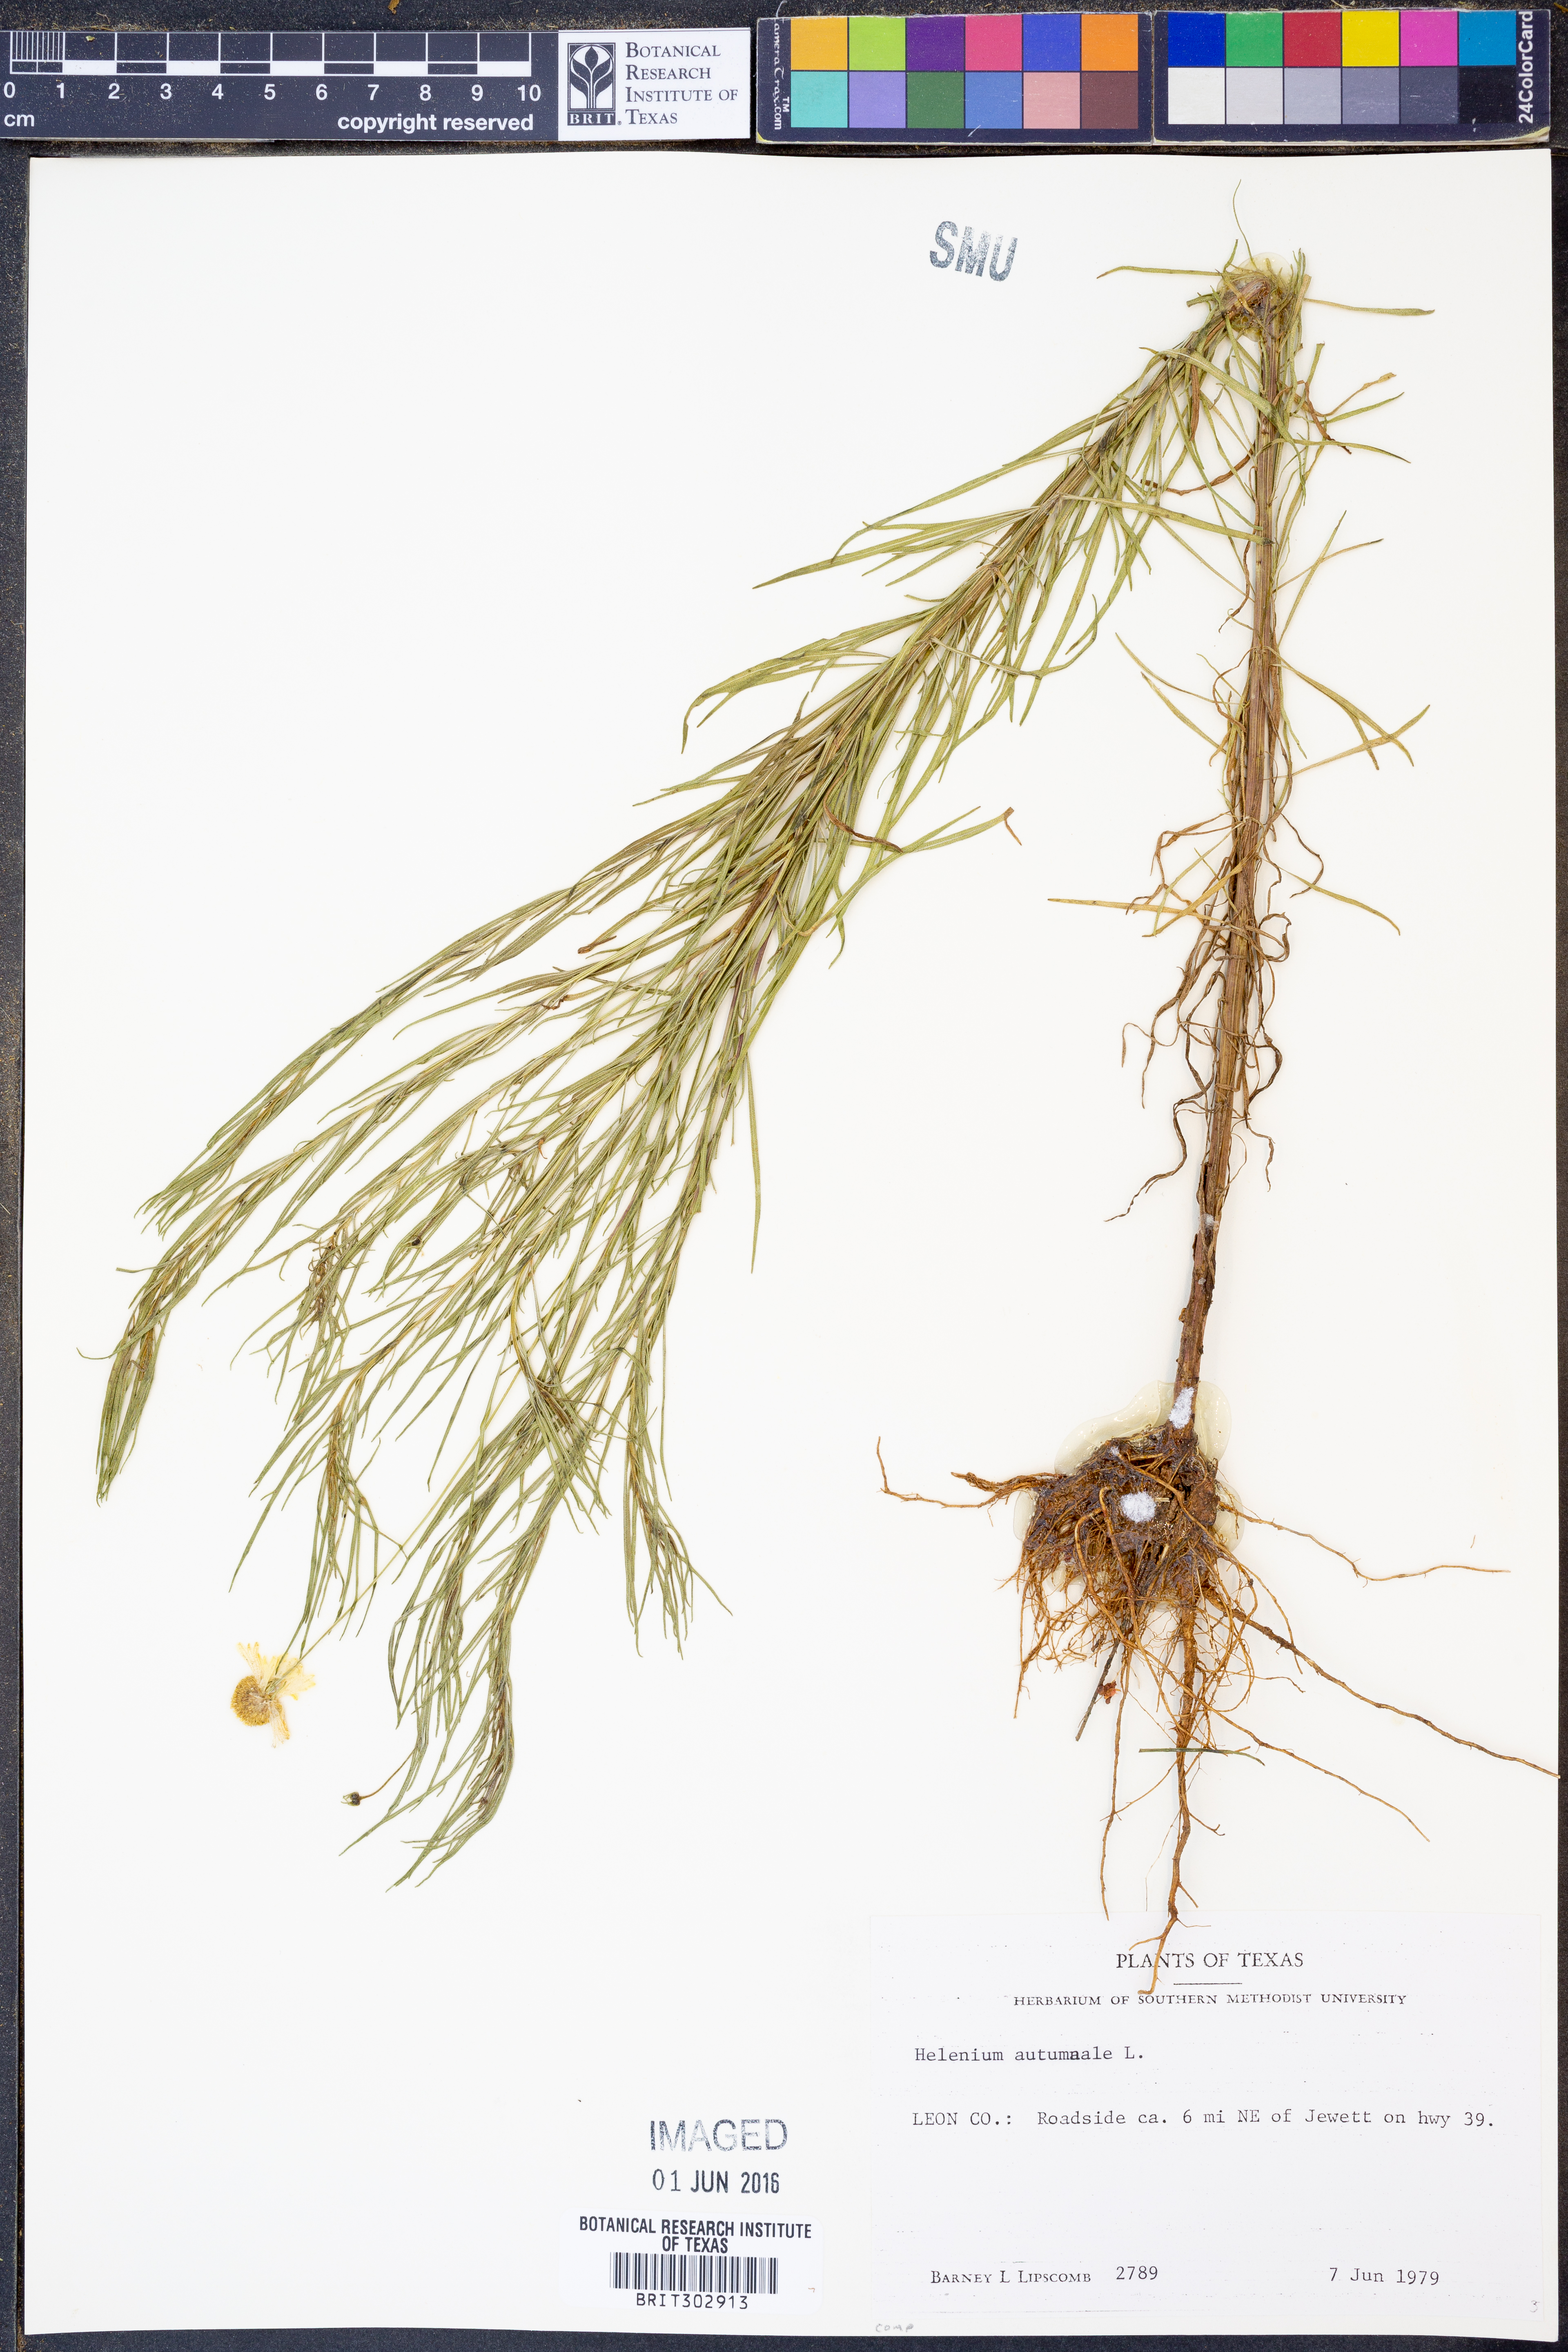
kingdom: Plantae
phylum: Tracheophyta
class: Magnoliopsida
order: Asterales
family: Asteraceae
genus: Helenium
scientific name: Helenium autumnale
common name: Sneezeweed
